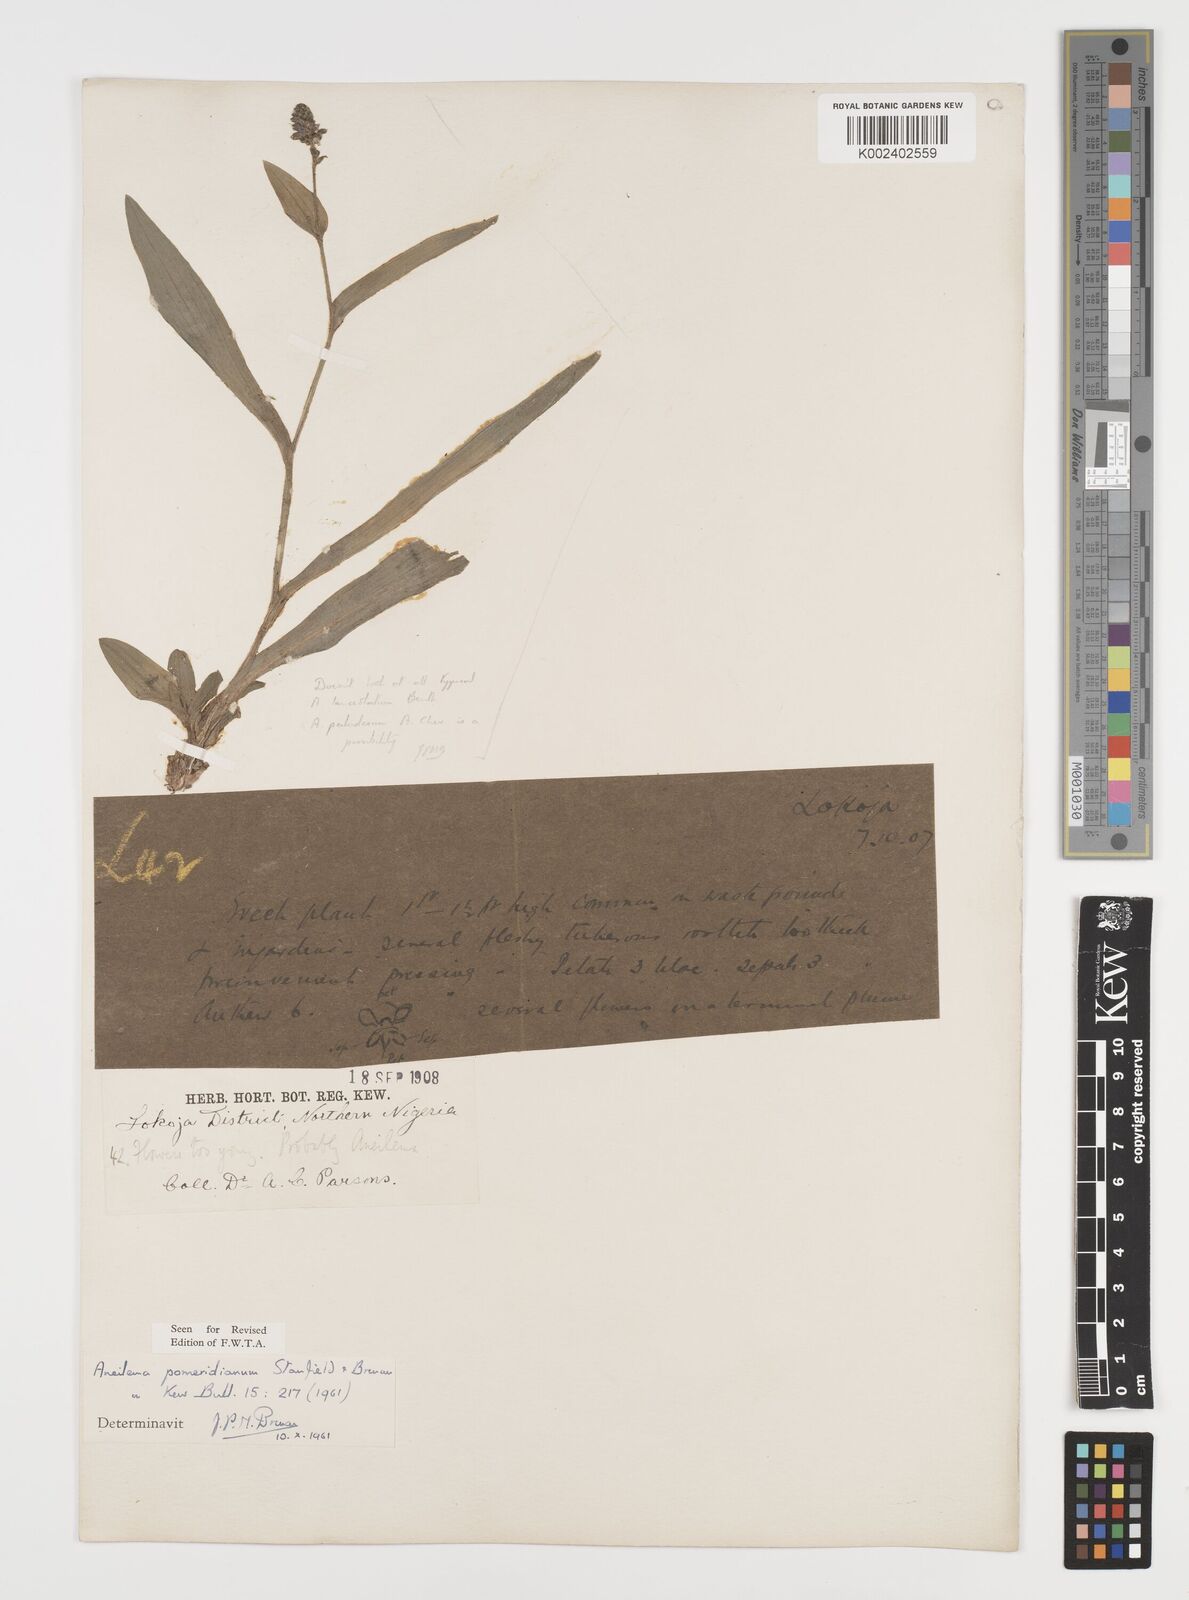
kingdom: Plantae
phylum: Tracheophyta
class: Liliopsida
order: Commelinales
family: Commelinaceae
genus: Aneilema
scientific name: Aneilema pomeridianum
